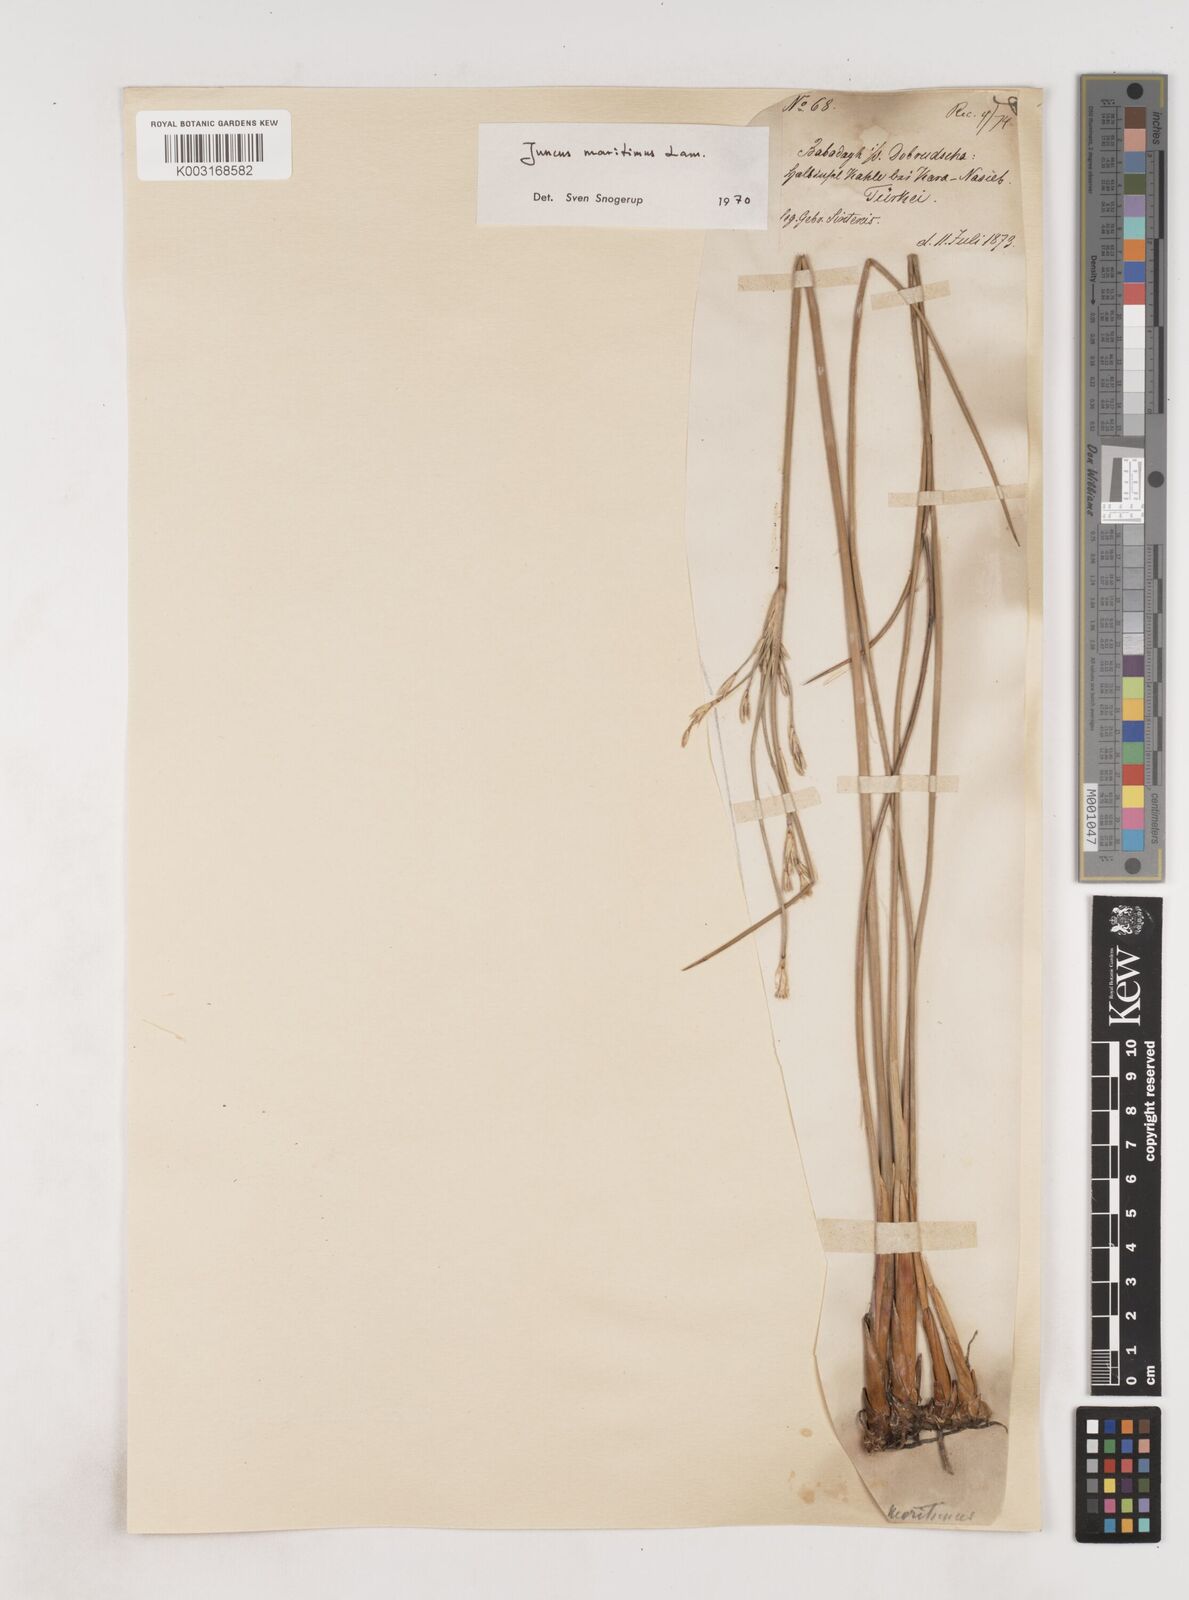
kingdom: Plantae
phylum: Tracheophyta
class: Liliopsida
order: Poales
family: Juncaceae
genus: Juncus
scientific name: Juncus maritimus
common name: Sea rush
